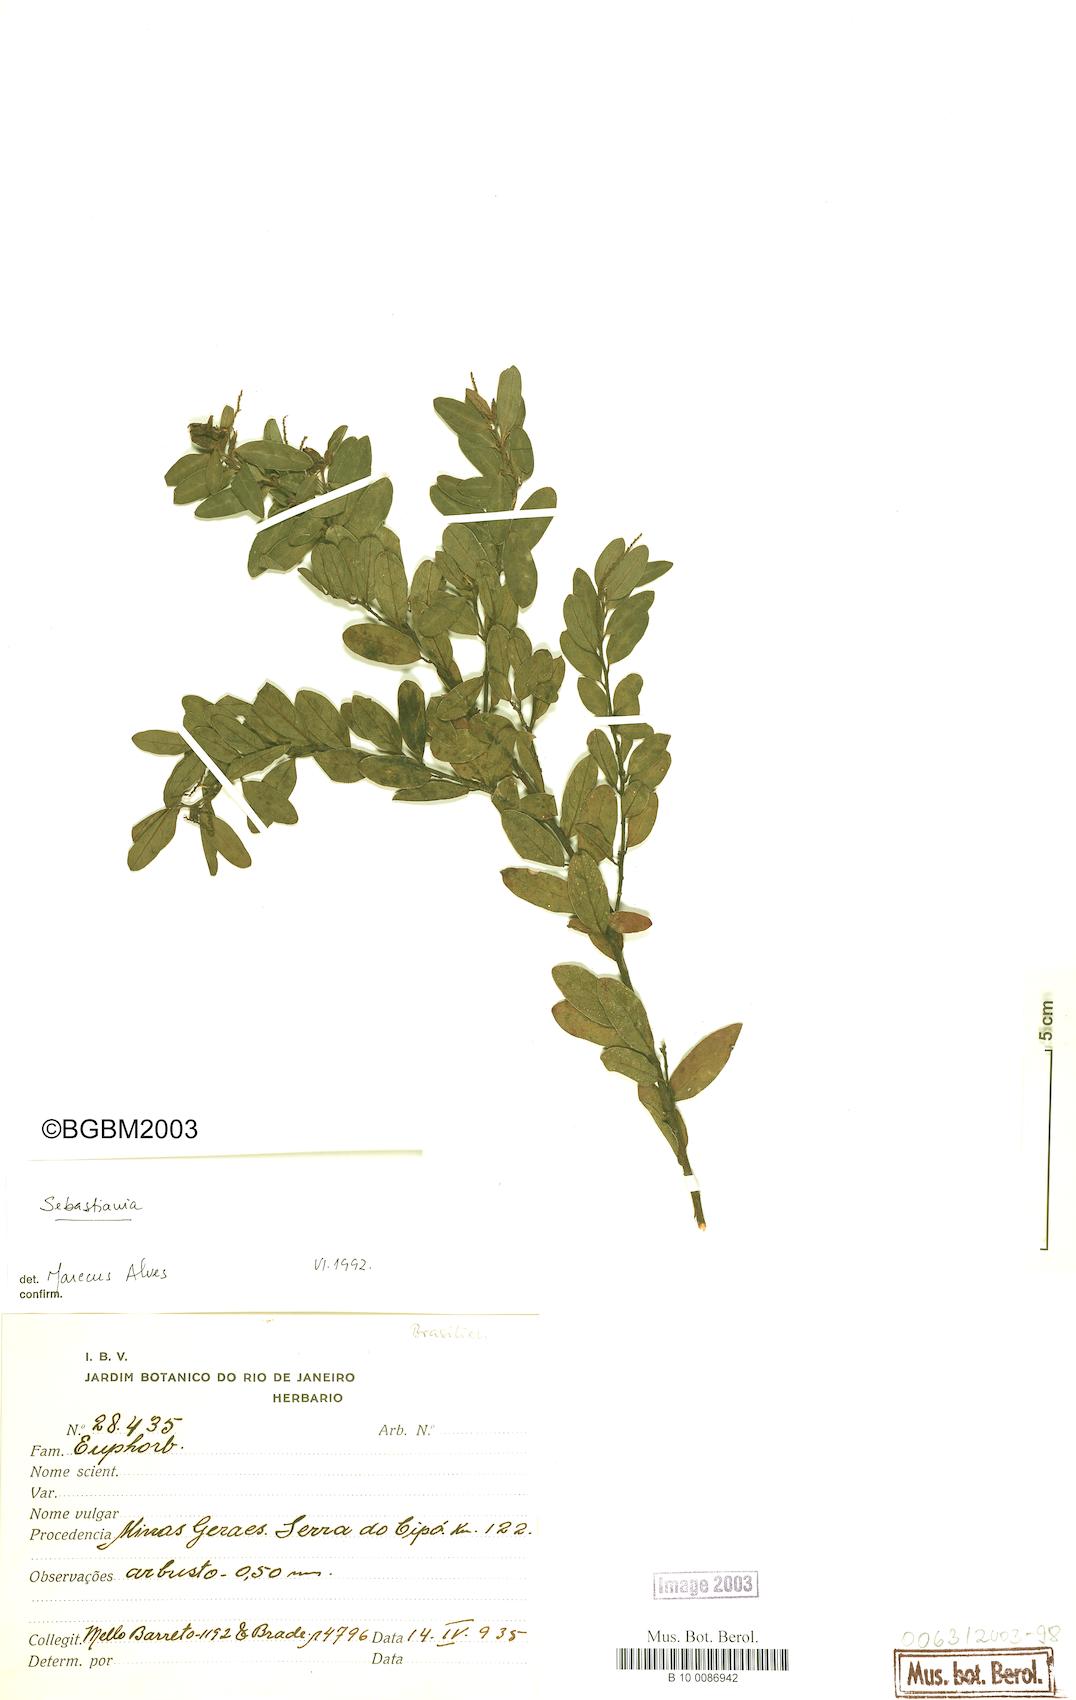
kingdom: Plantae
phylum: Tracheophyta
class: Magnoliopsida
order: Malpighiales
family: Euphorbiaceae
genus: Microstachys
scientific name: Microstachys hispida
